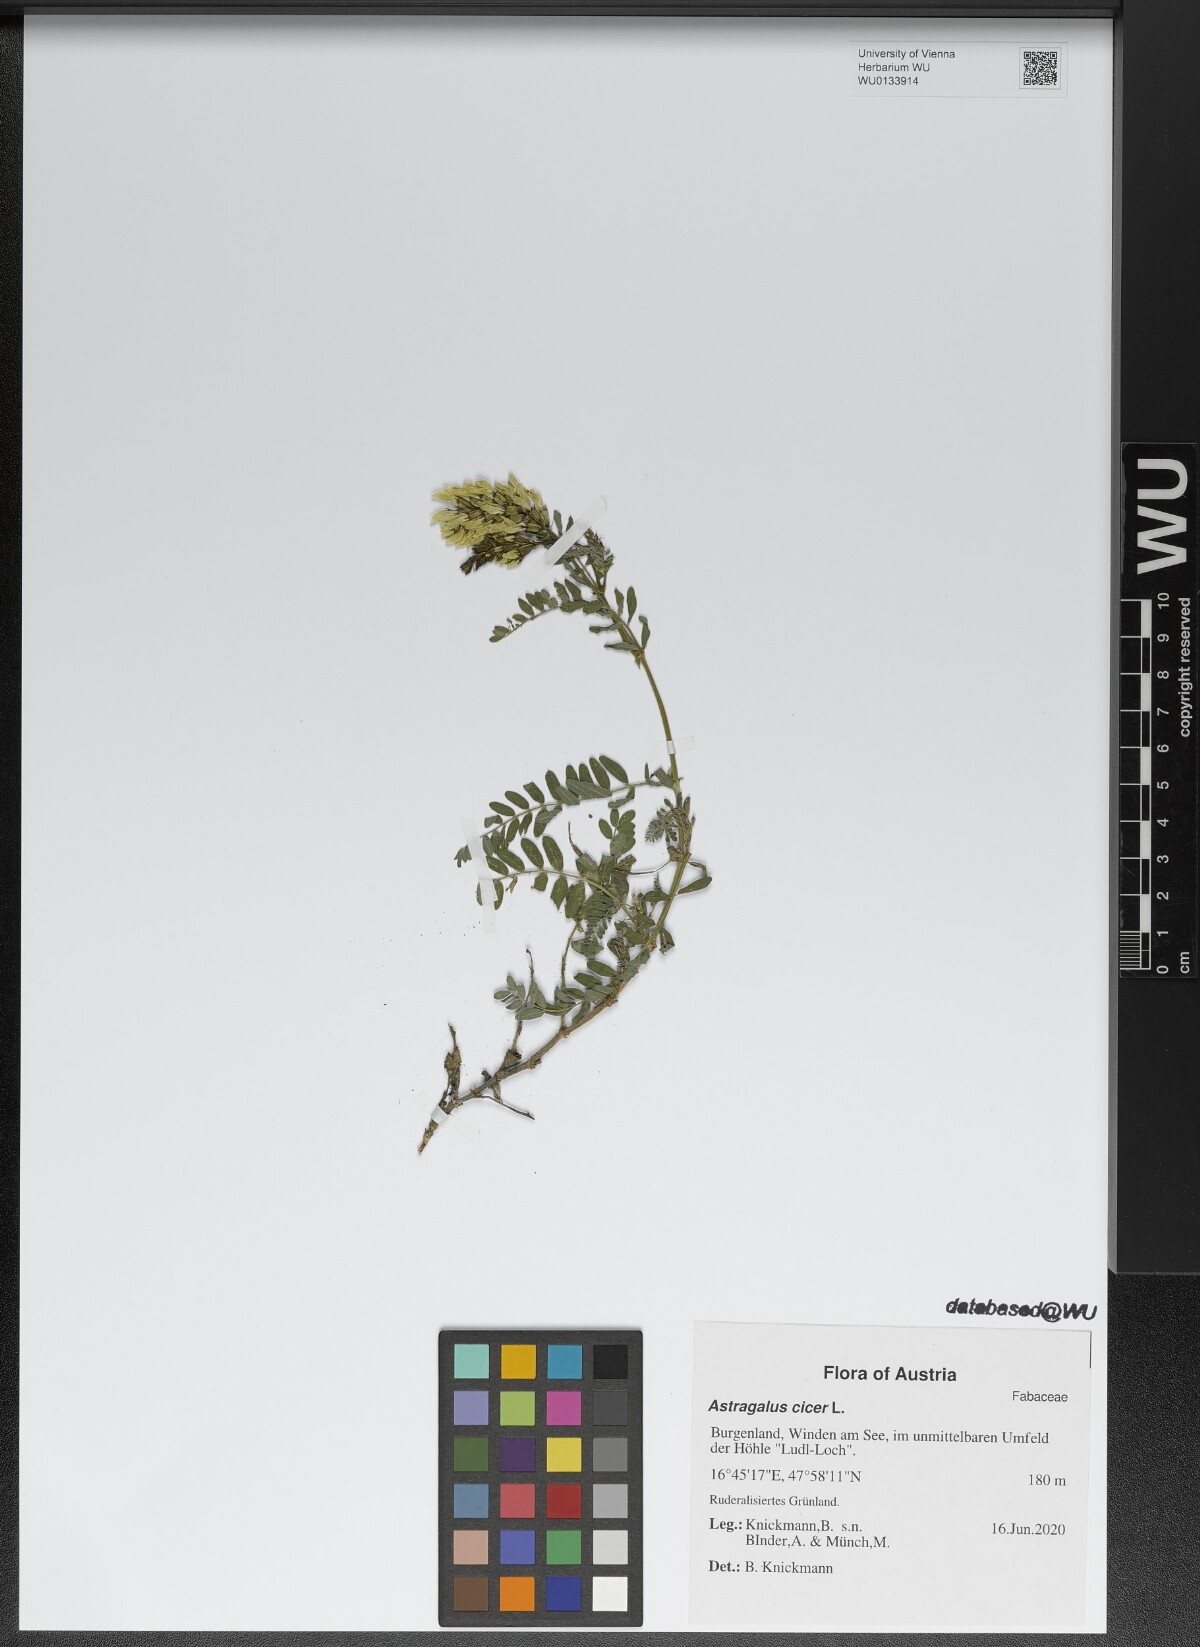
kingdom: Plantae
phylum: Tracheophyta
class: Magnoliopsida
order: Fabales
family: Fabaceae
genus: Astragalus
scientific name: Astragalus cicer
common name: Chick-pea milk-vetch
